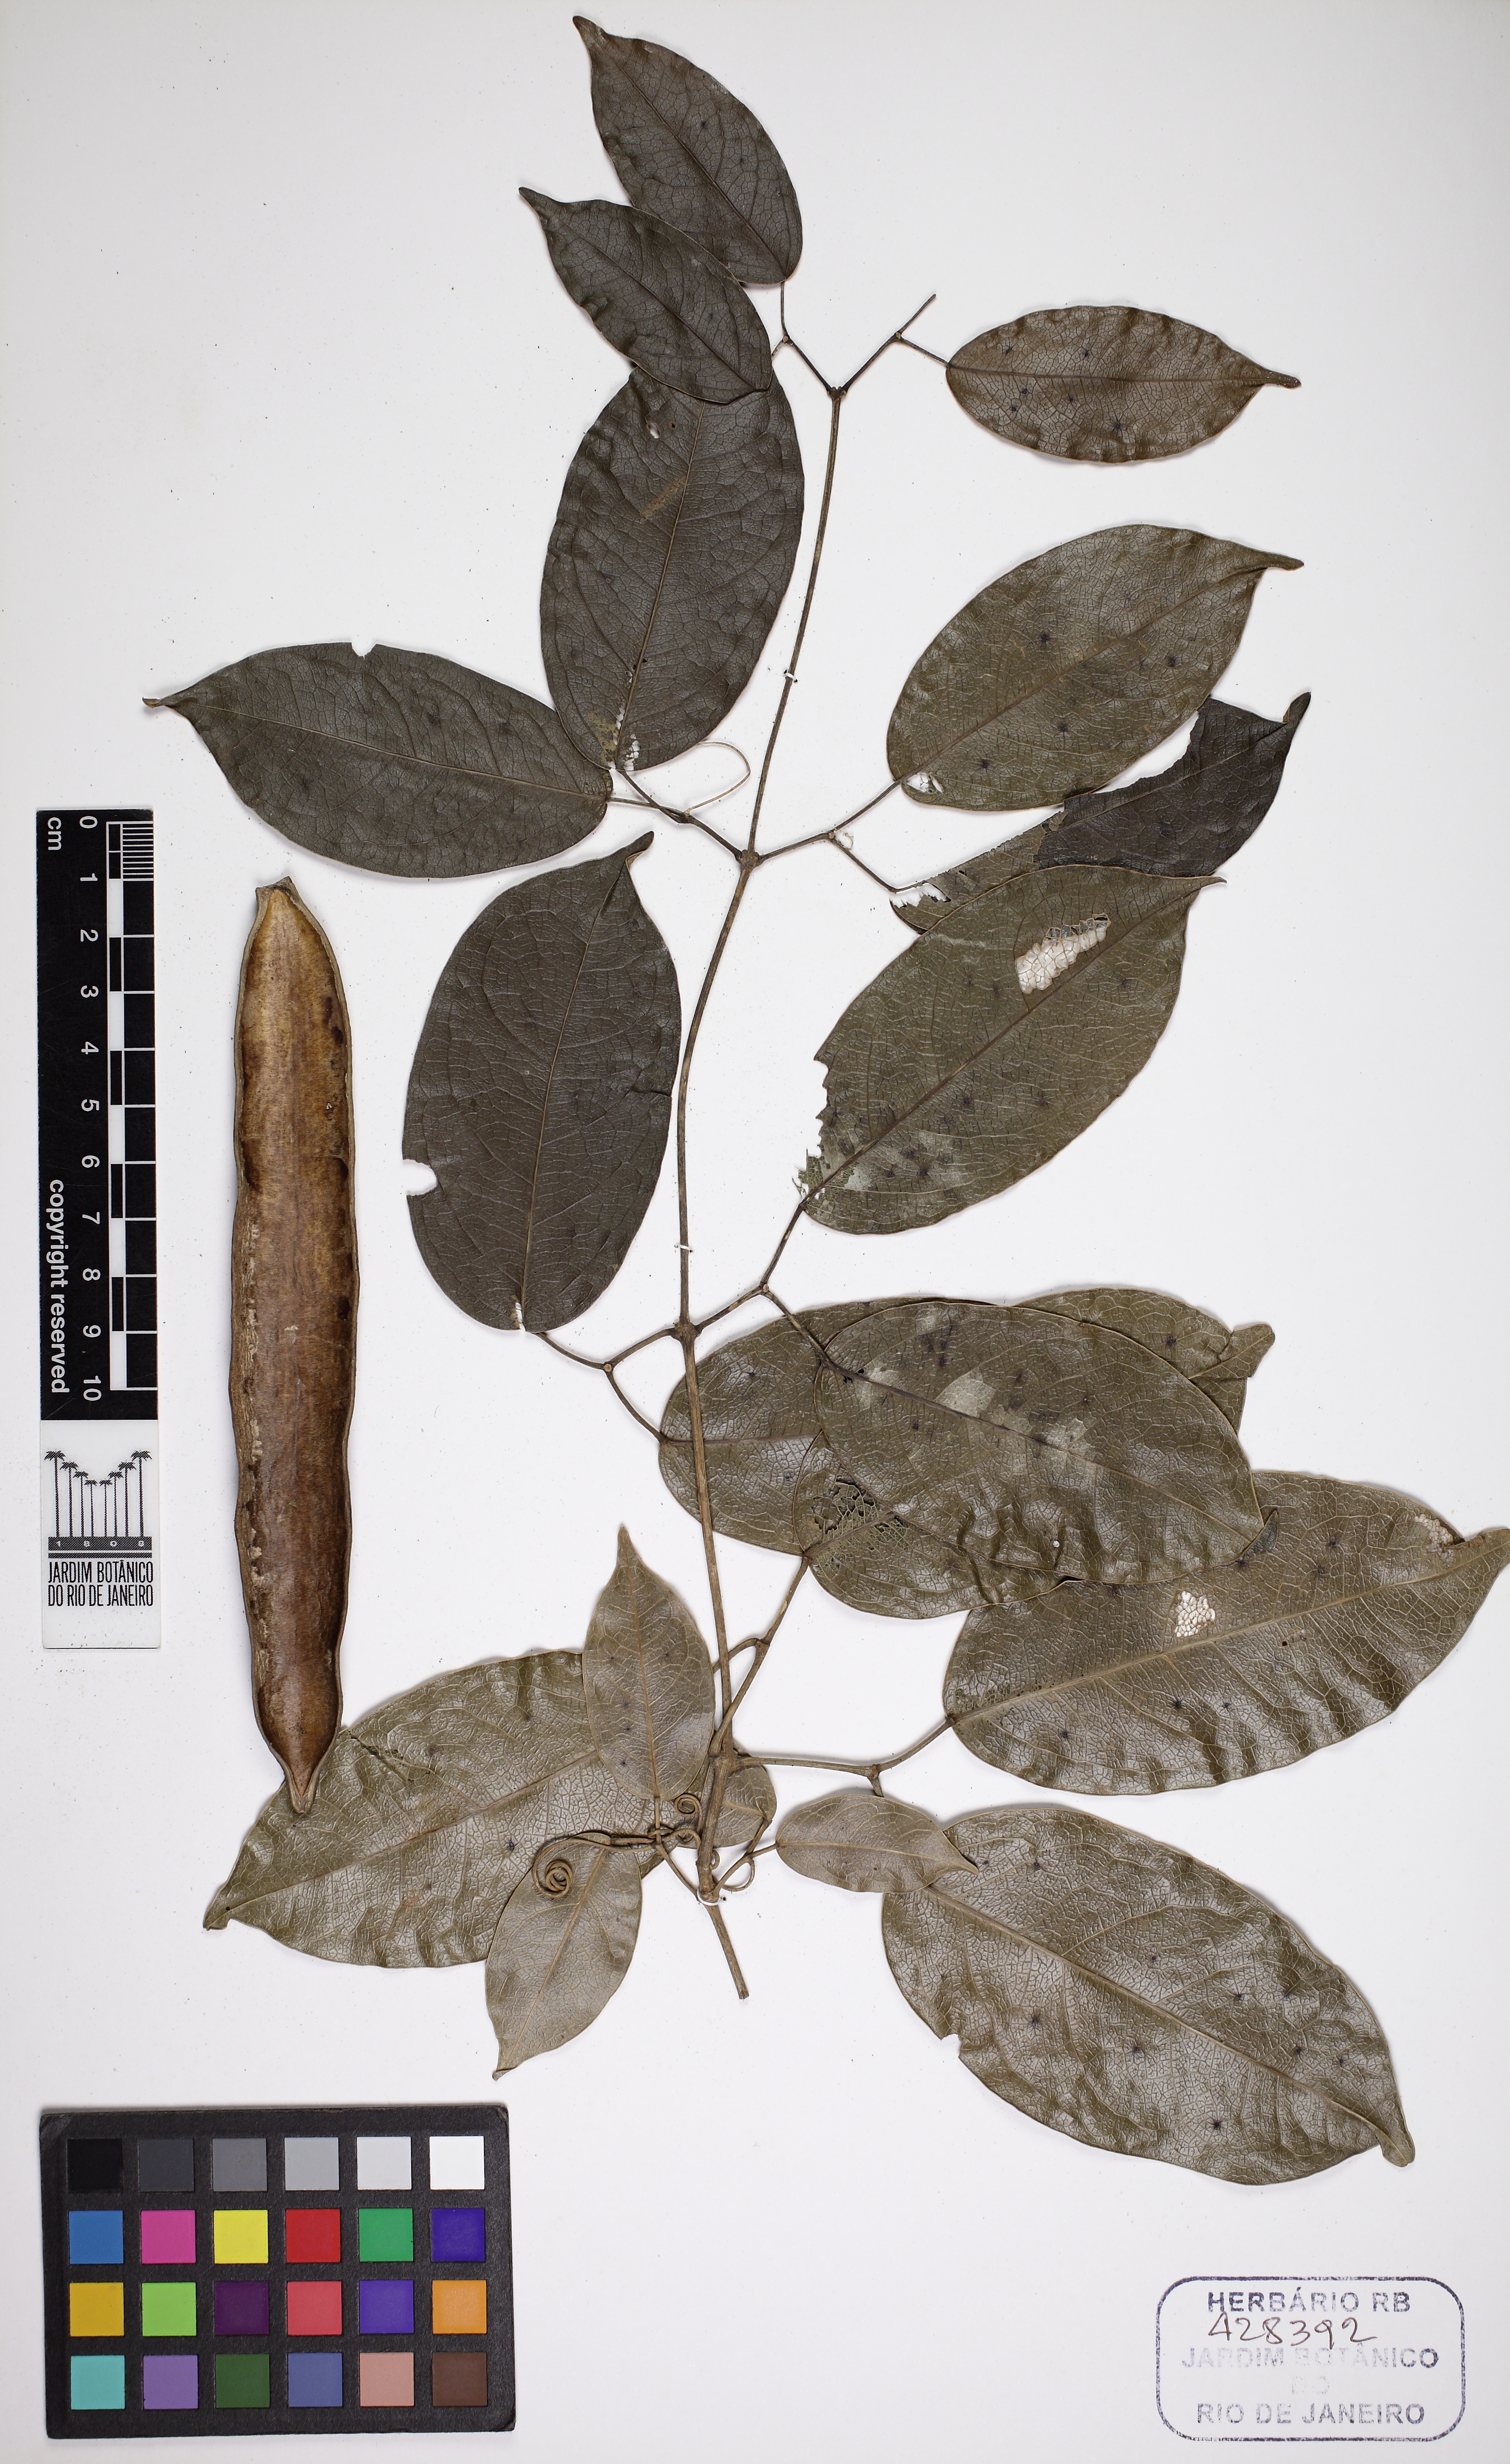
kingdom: Plantae
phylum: Tracheophyta
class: Magnoliopsida
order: Lamiales
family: Bignoniaceae
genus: Adenocalymma
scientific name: Adenocalymma marginatum
